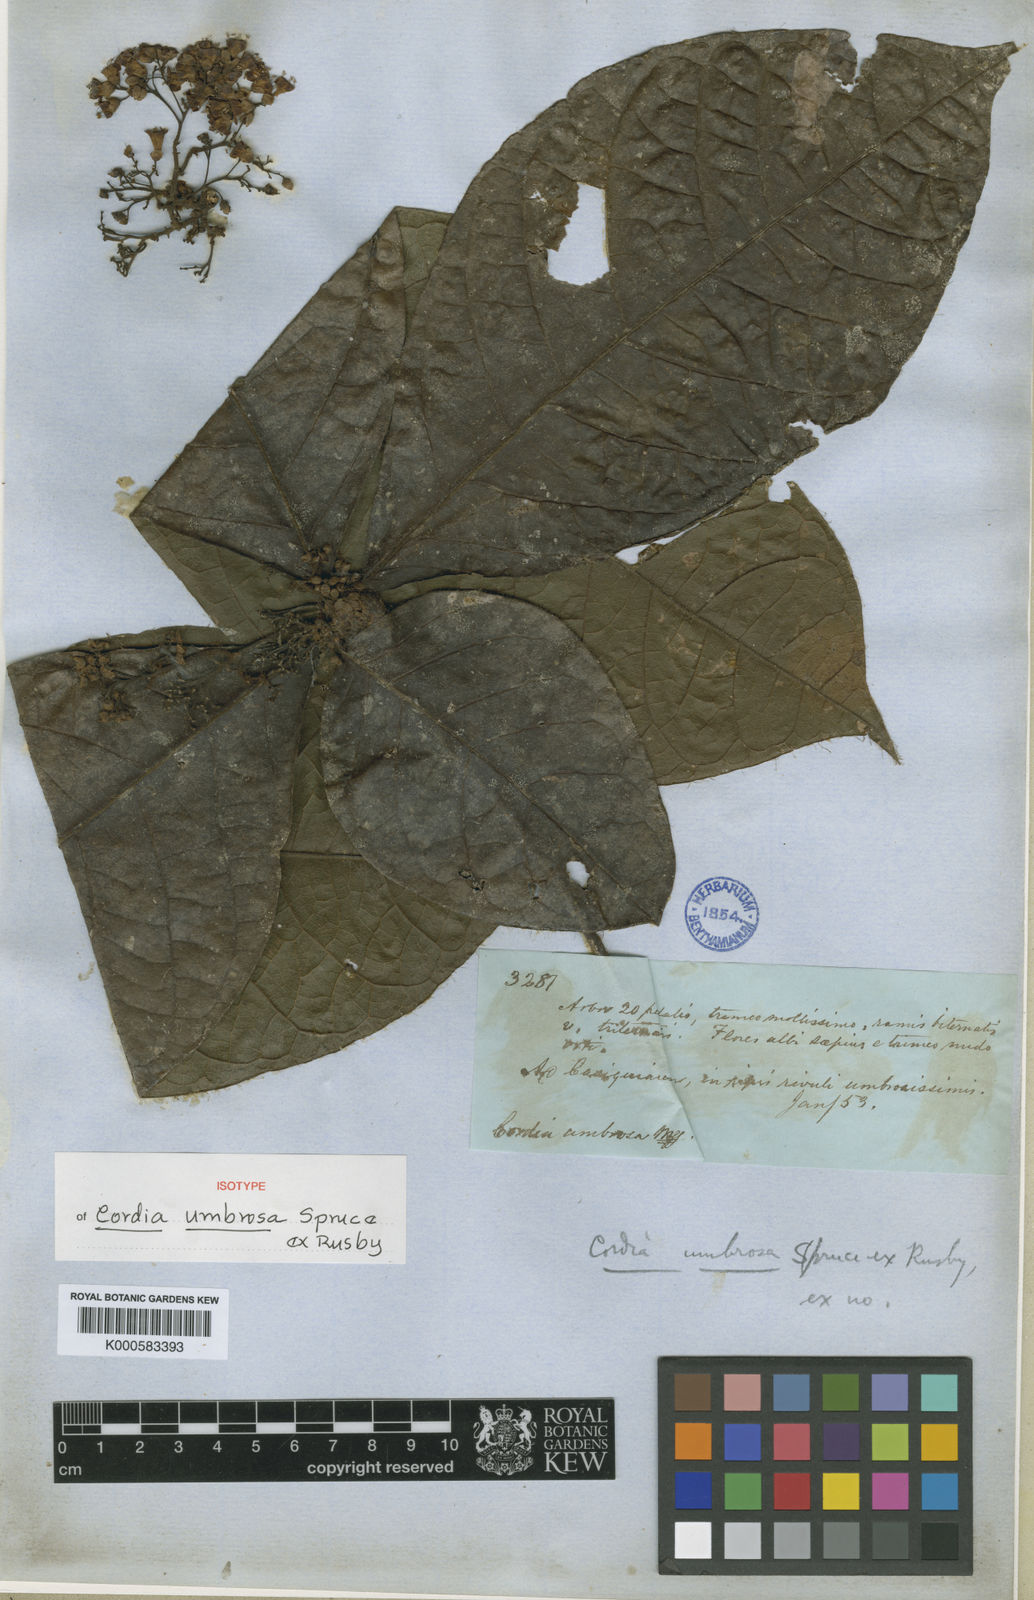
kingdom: Plantae
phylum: Tracheophyta
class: Magnoliopsida
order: Boraginales
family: Cordiaceae
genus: Cordia
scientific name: Cordia nodosa
